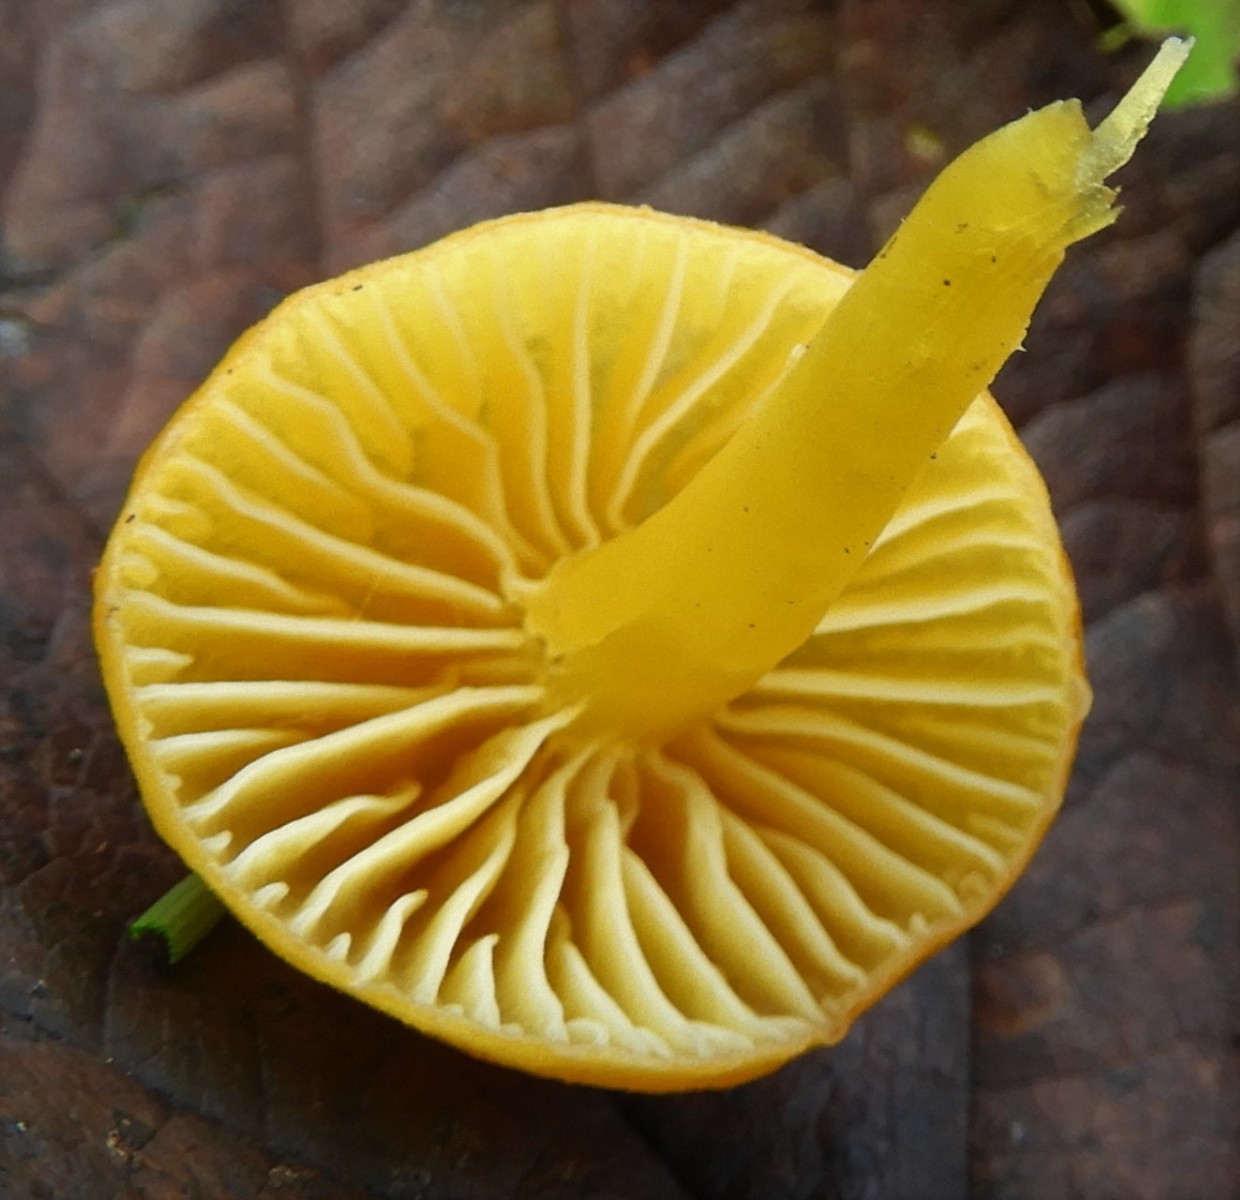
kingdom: Fungi
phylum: Basidiomycota
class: Agaricomycetes
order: Agaricales
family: Hygrophoraceae
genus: Hygrocybe
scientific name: Hygrocybe ceracea
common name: voksgul vokshat
